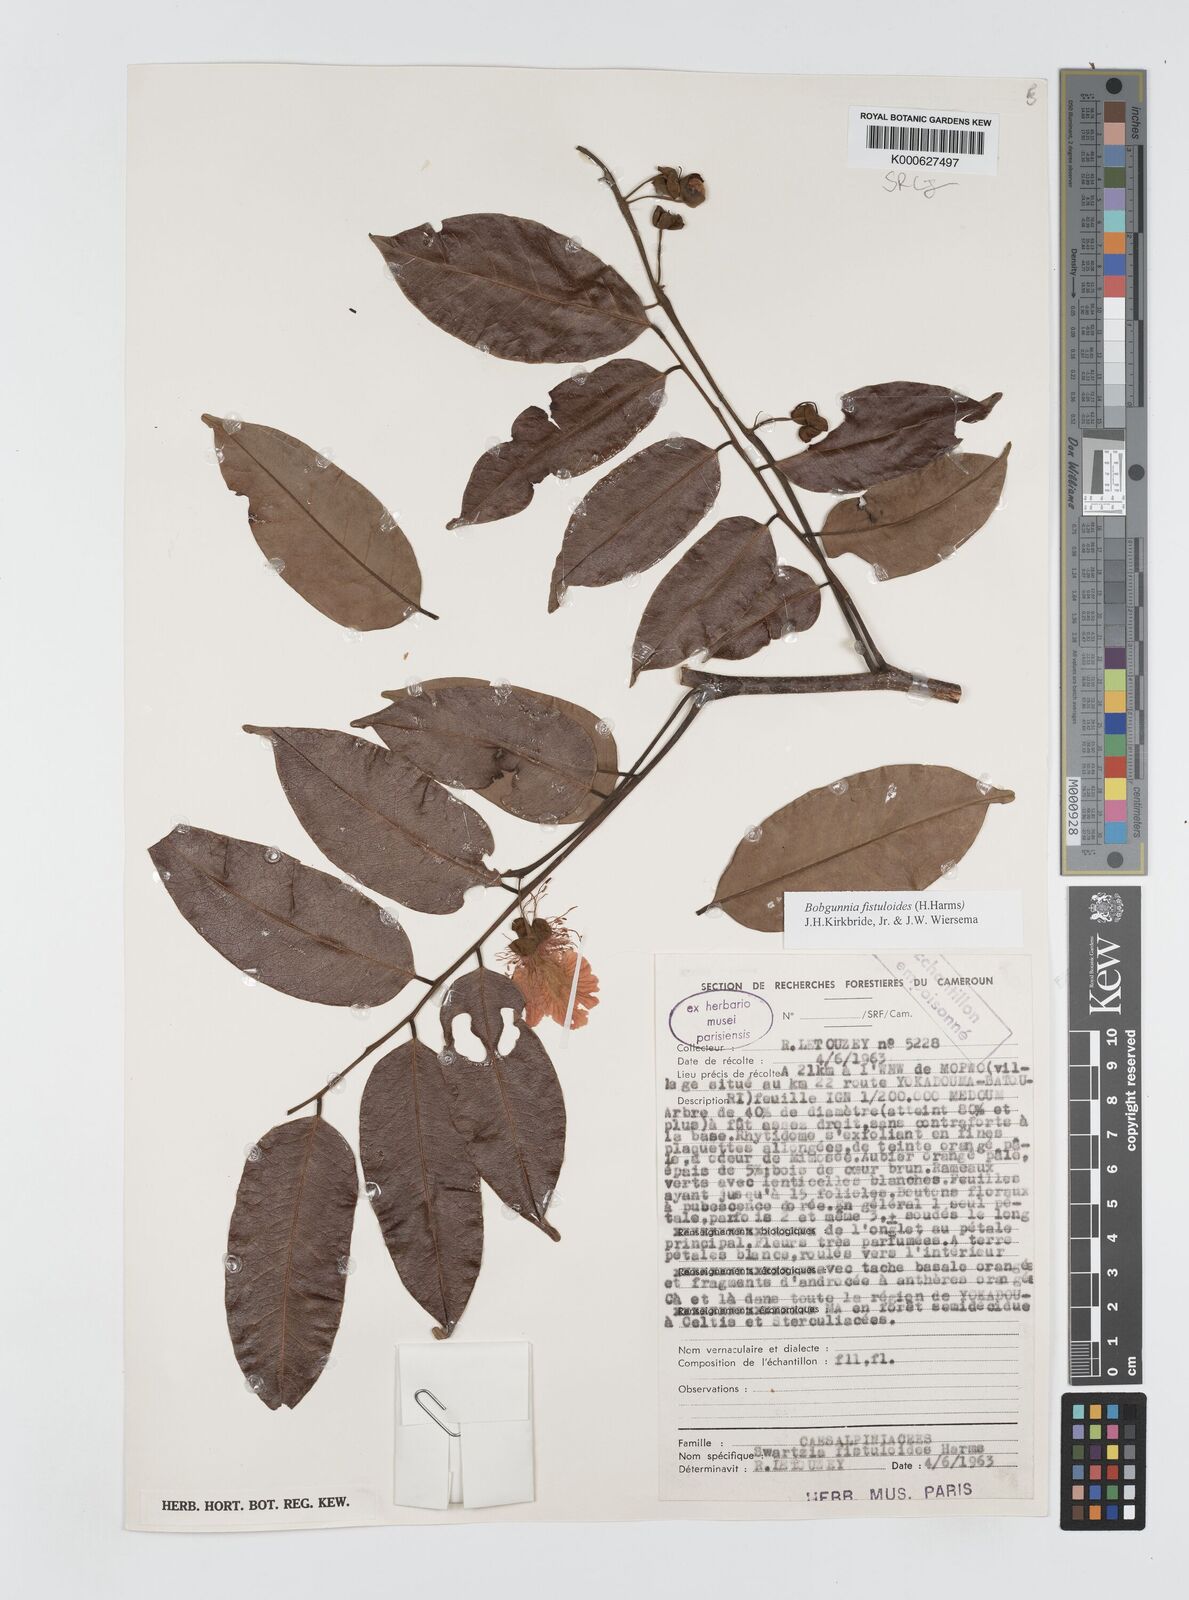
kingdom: Plantae
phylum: Tracheophyta
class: Magnoliopsida
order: Fabales
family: Fabaceae
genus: Bobgunnia
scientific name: Bobgunnia fistuloides
